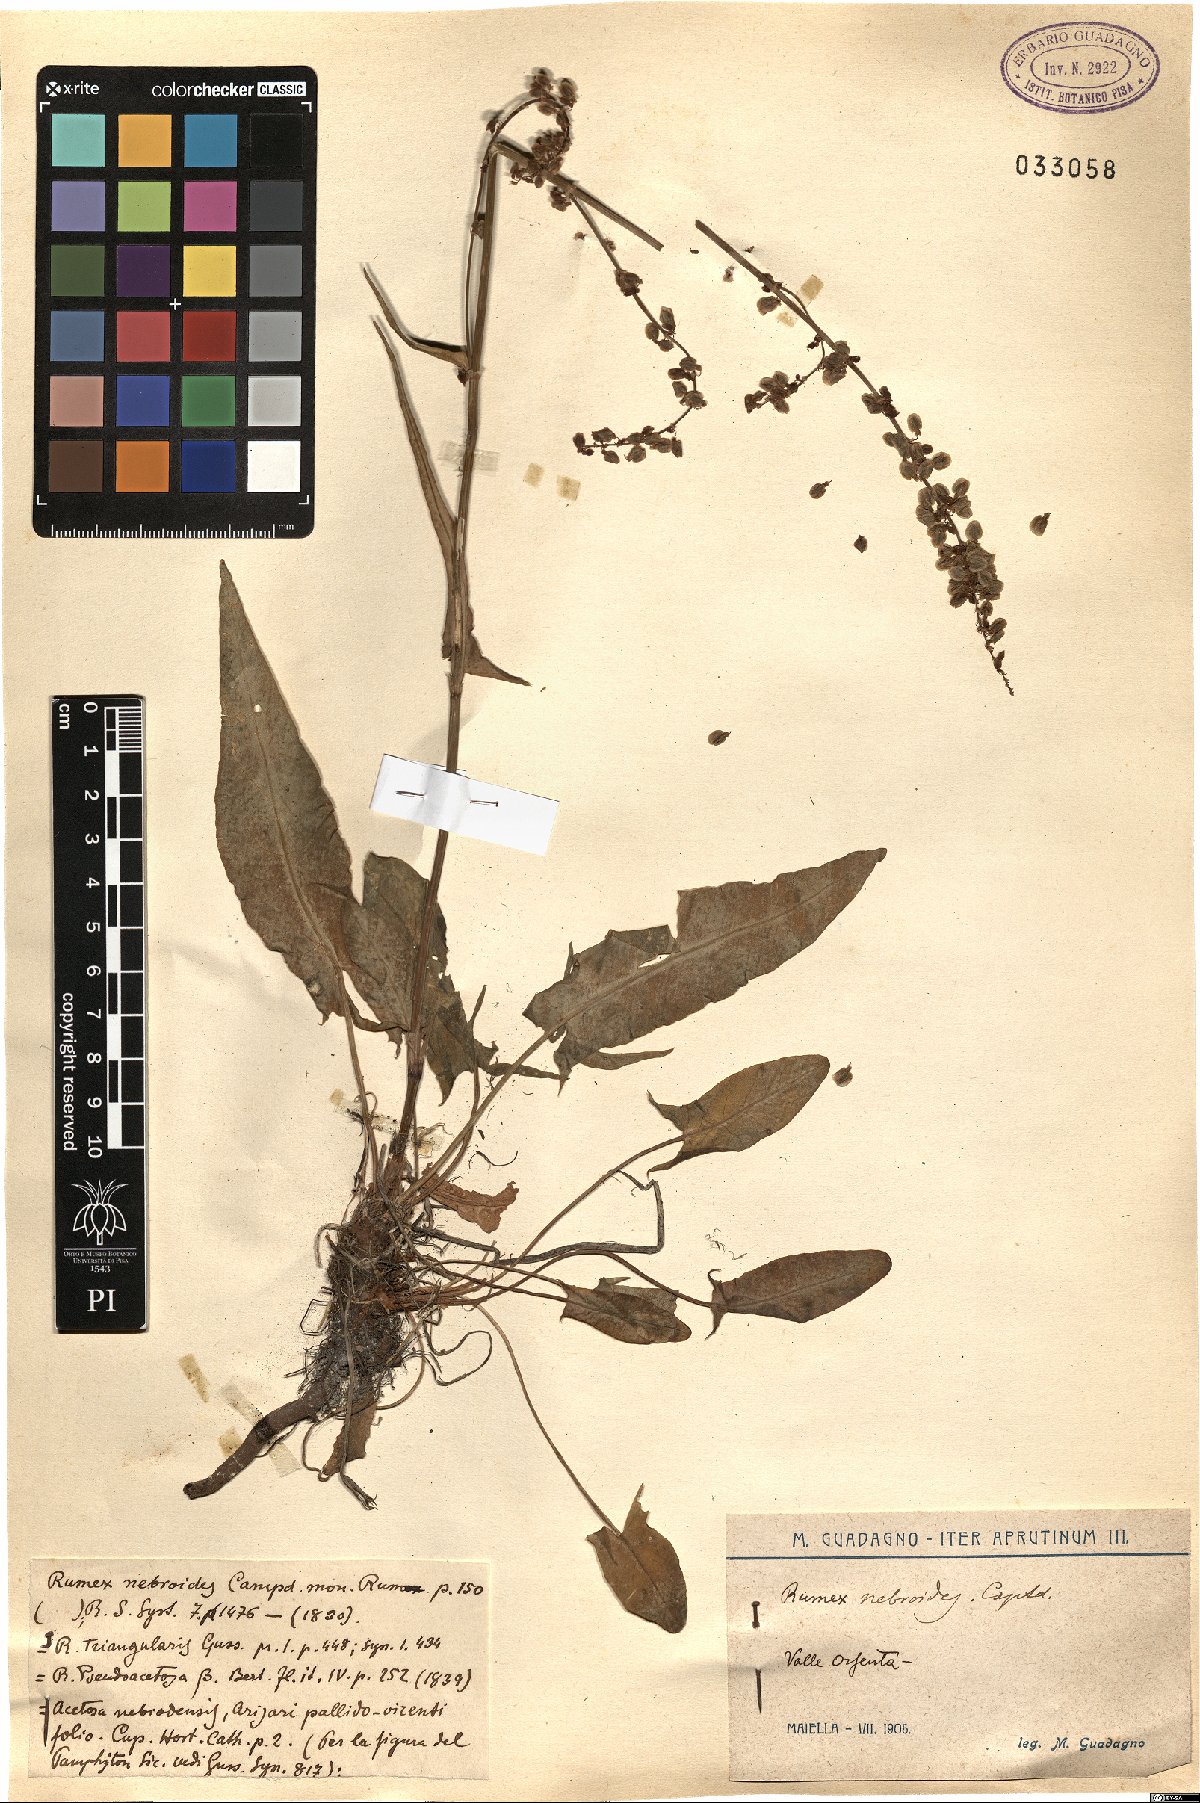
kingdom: Plantae
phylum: Tracheophyta
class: Magnoliopsida
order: Caryophyllales
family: Polygonaceae
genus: Rumex
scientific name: Rumex nebroides
